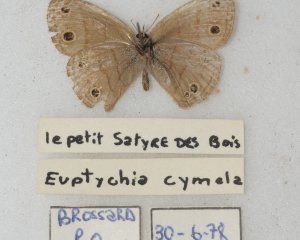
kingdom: Animalia
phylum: Arthropoda
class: Insecta
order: Lepidoptera
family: Nymphalidae
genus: Euptychia
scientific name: Euptychia cymela
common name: Little Wood Satyr
